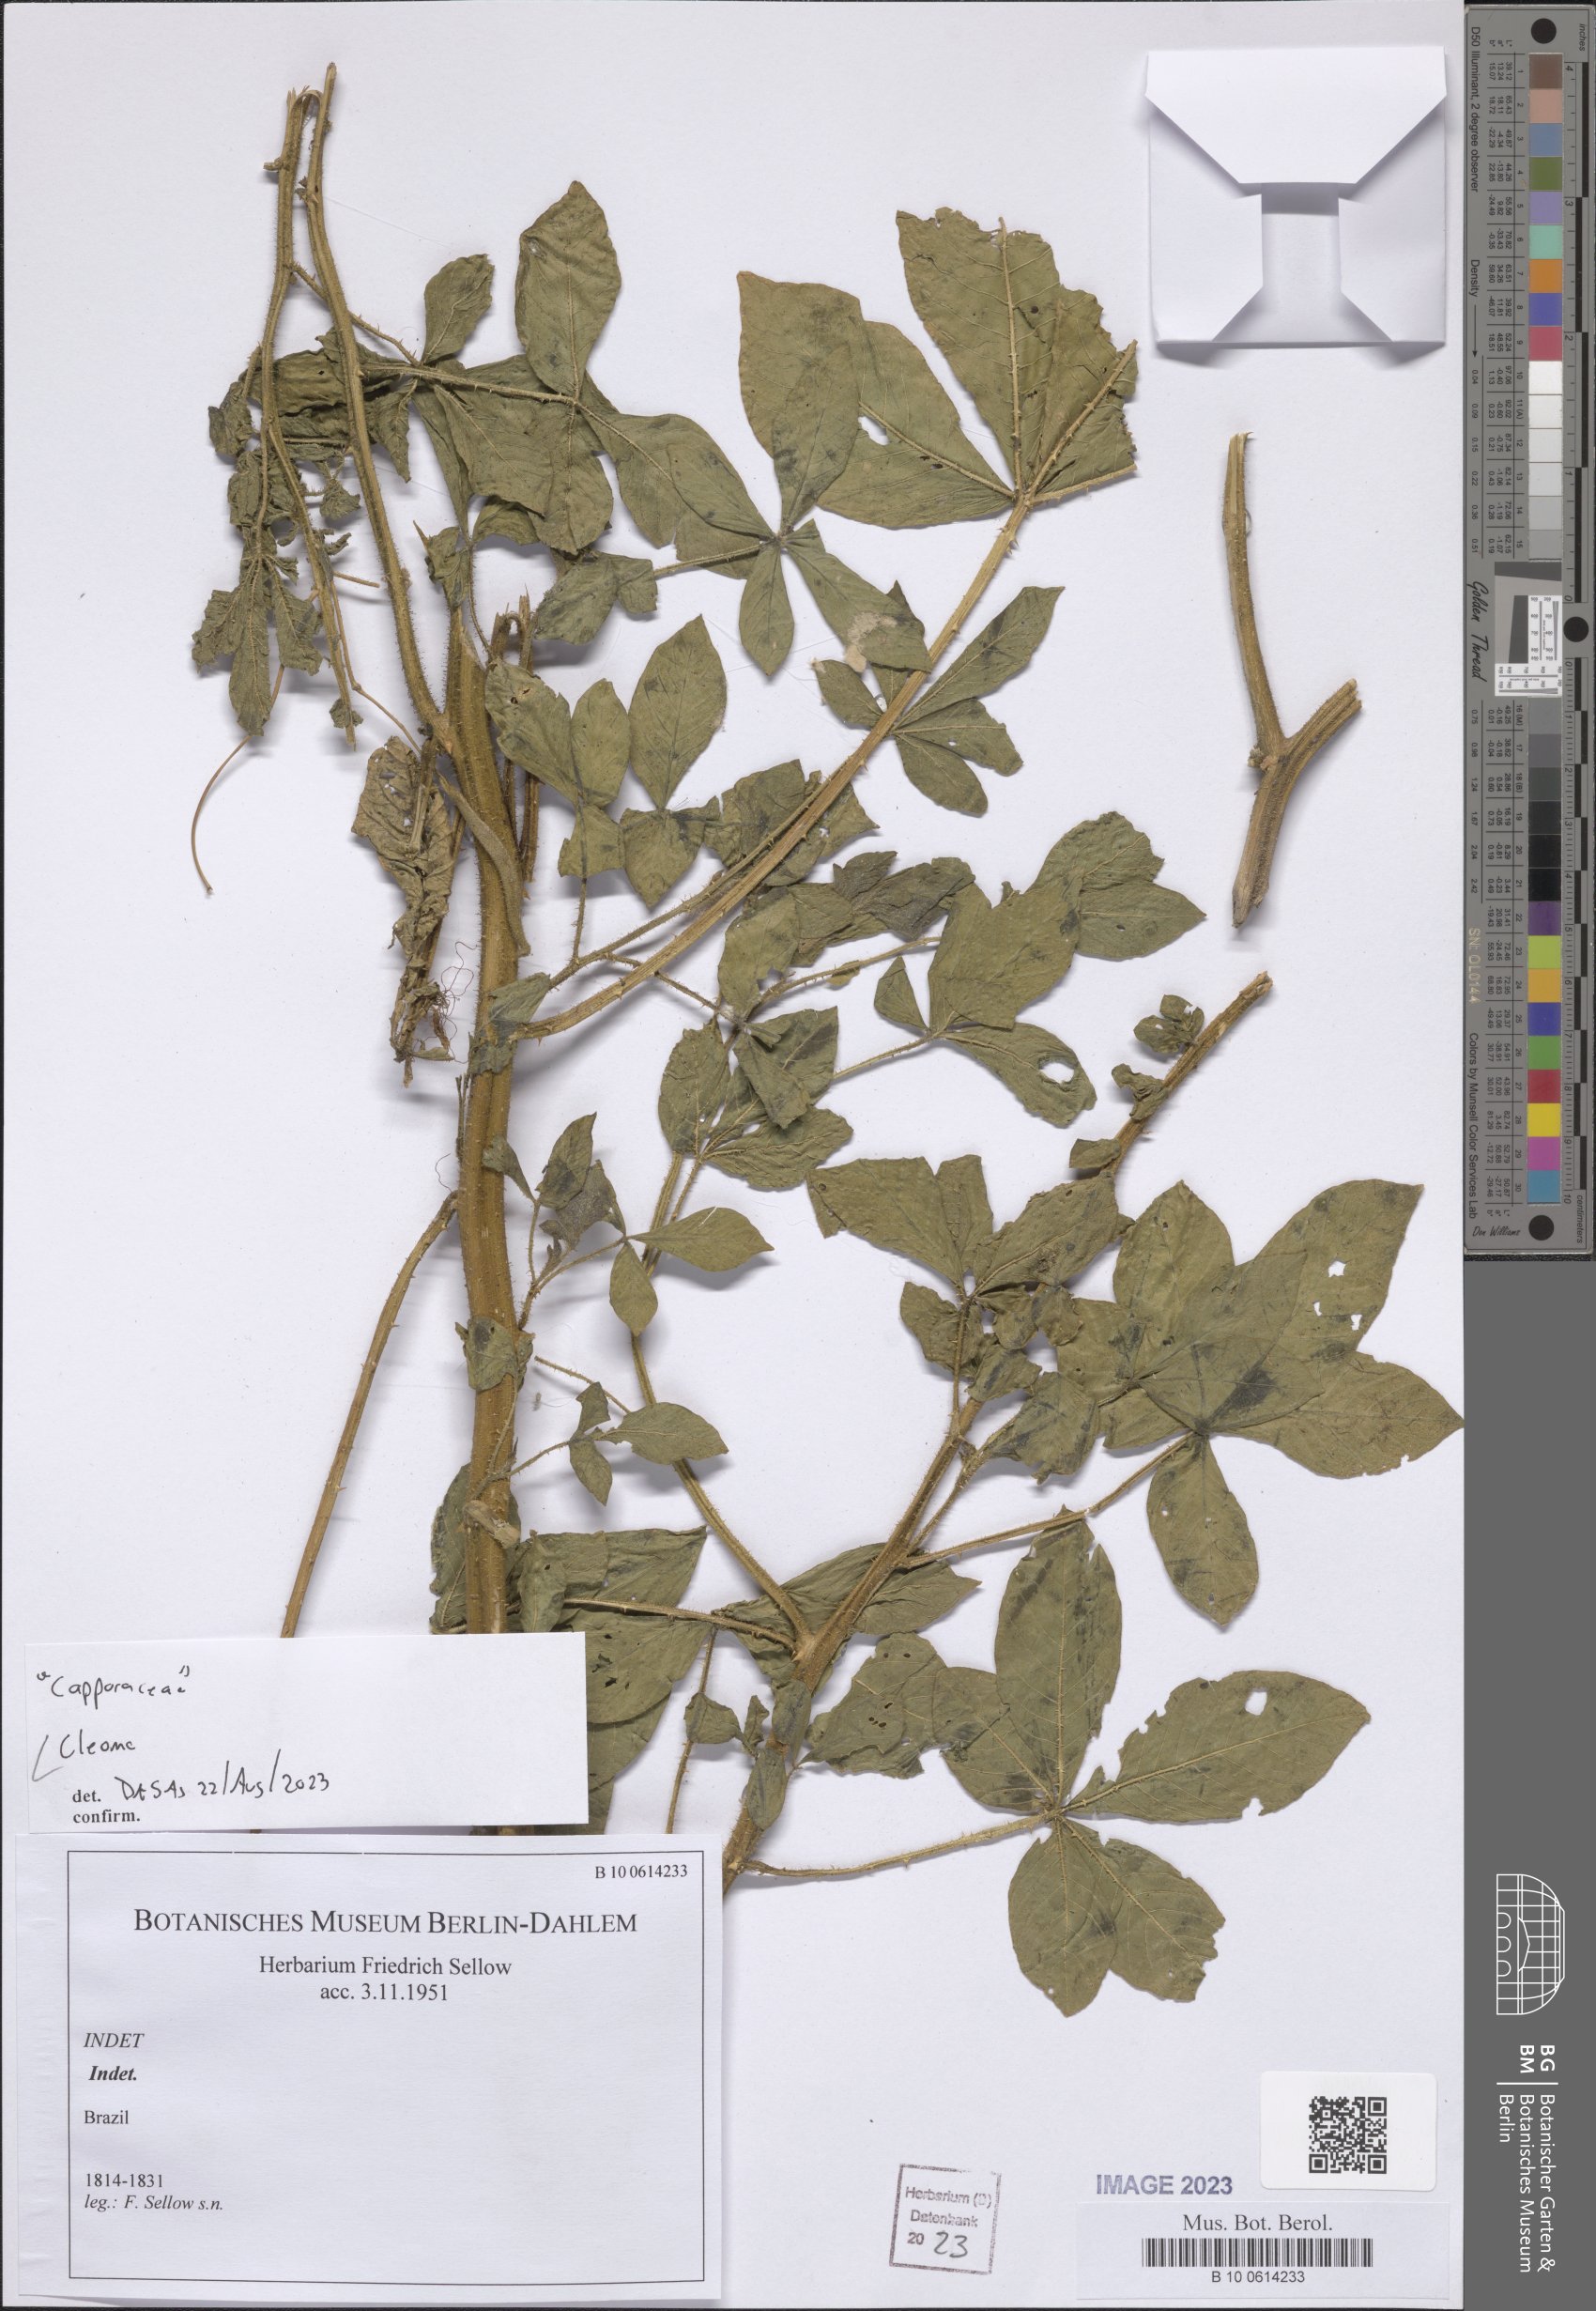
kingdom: Plantae
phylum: Tracheophyta
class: Magnoliopsida
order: Brassicales
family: Cleomaceae
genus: Cleome
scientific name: Cleome
